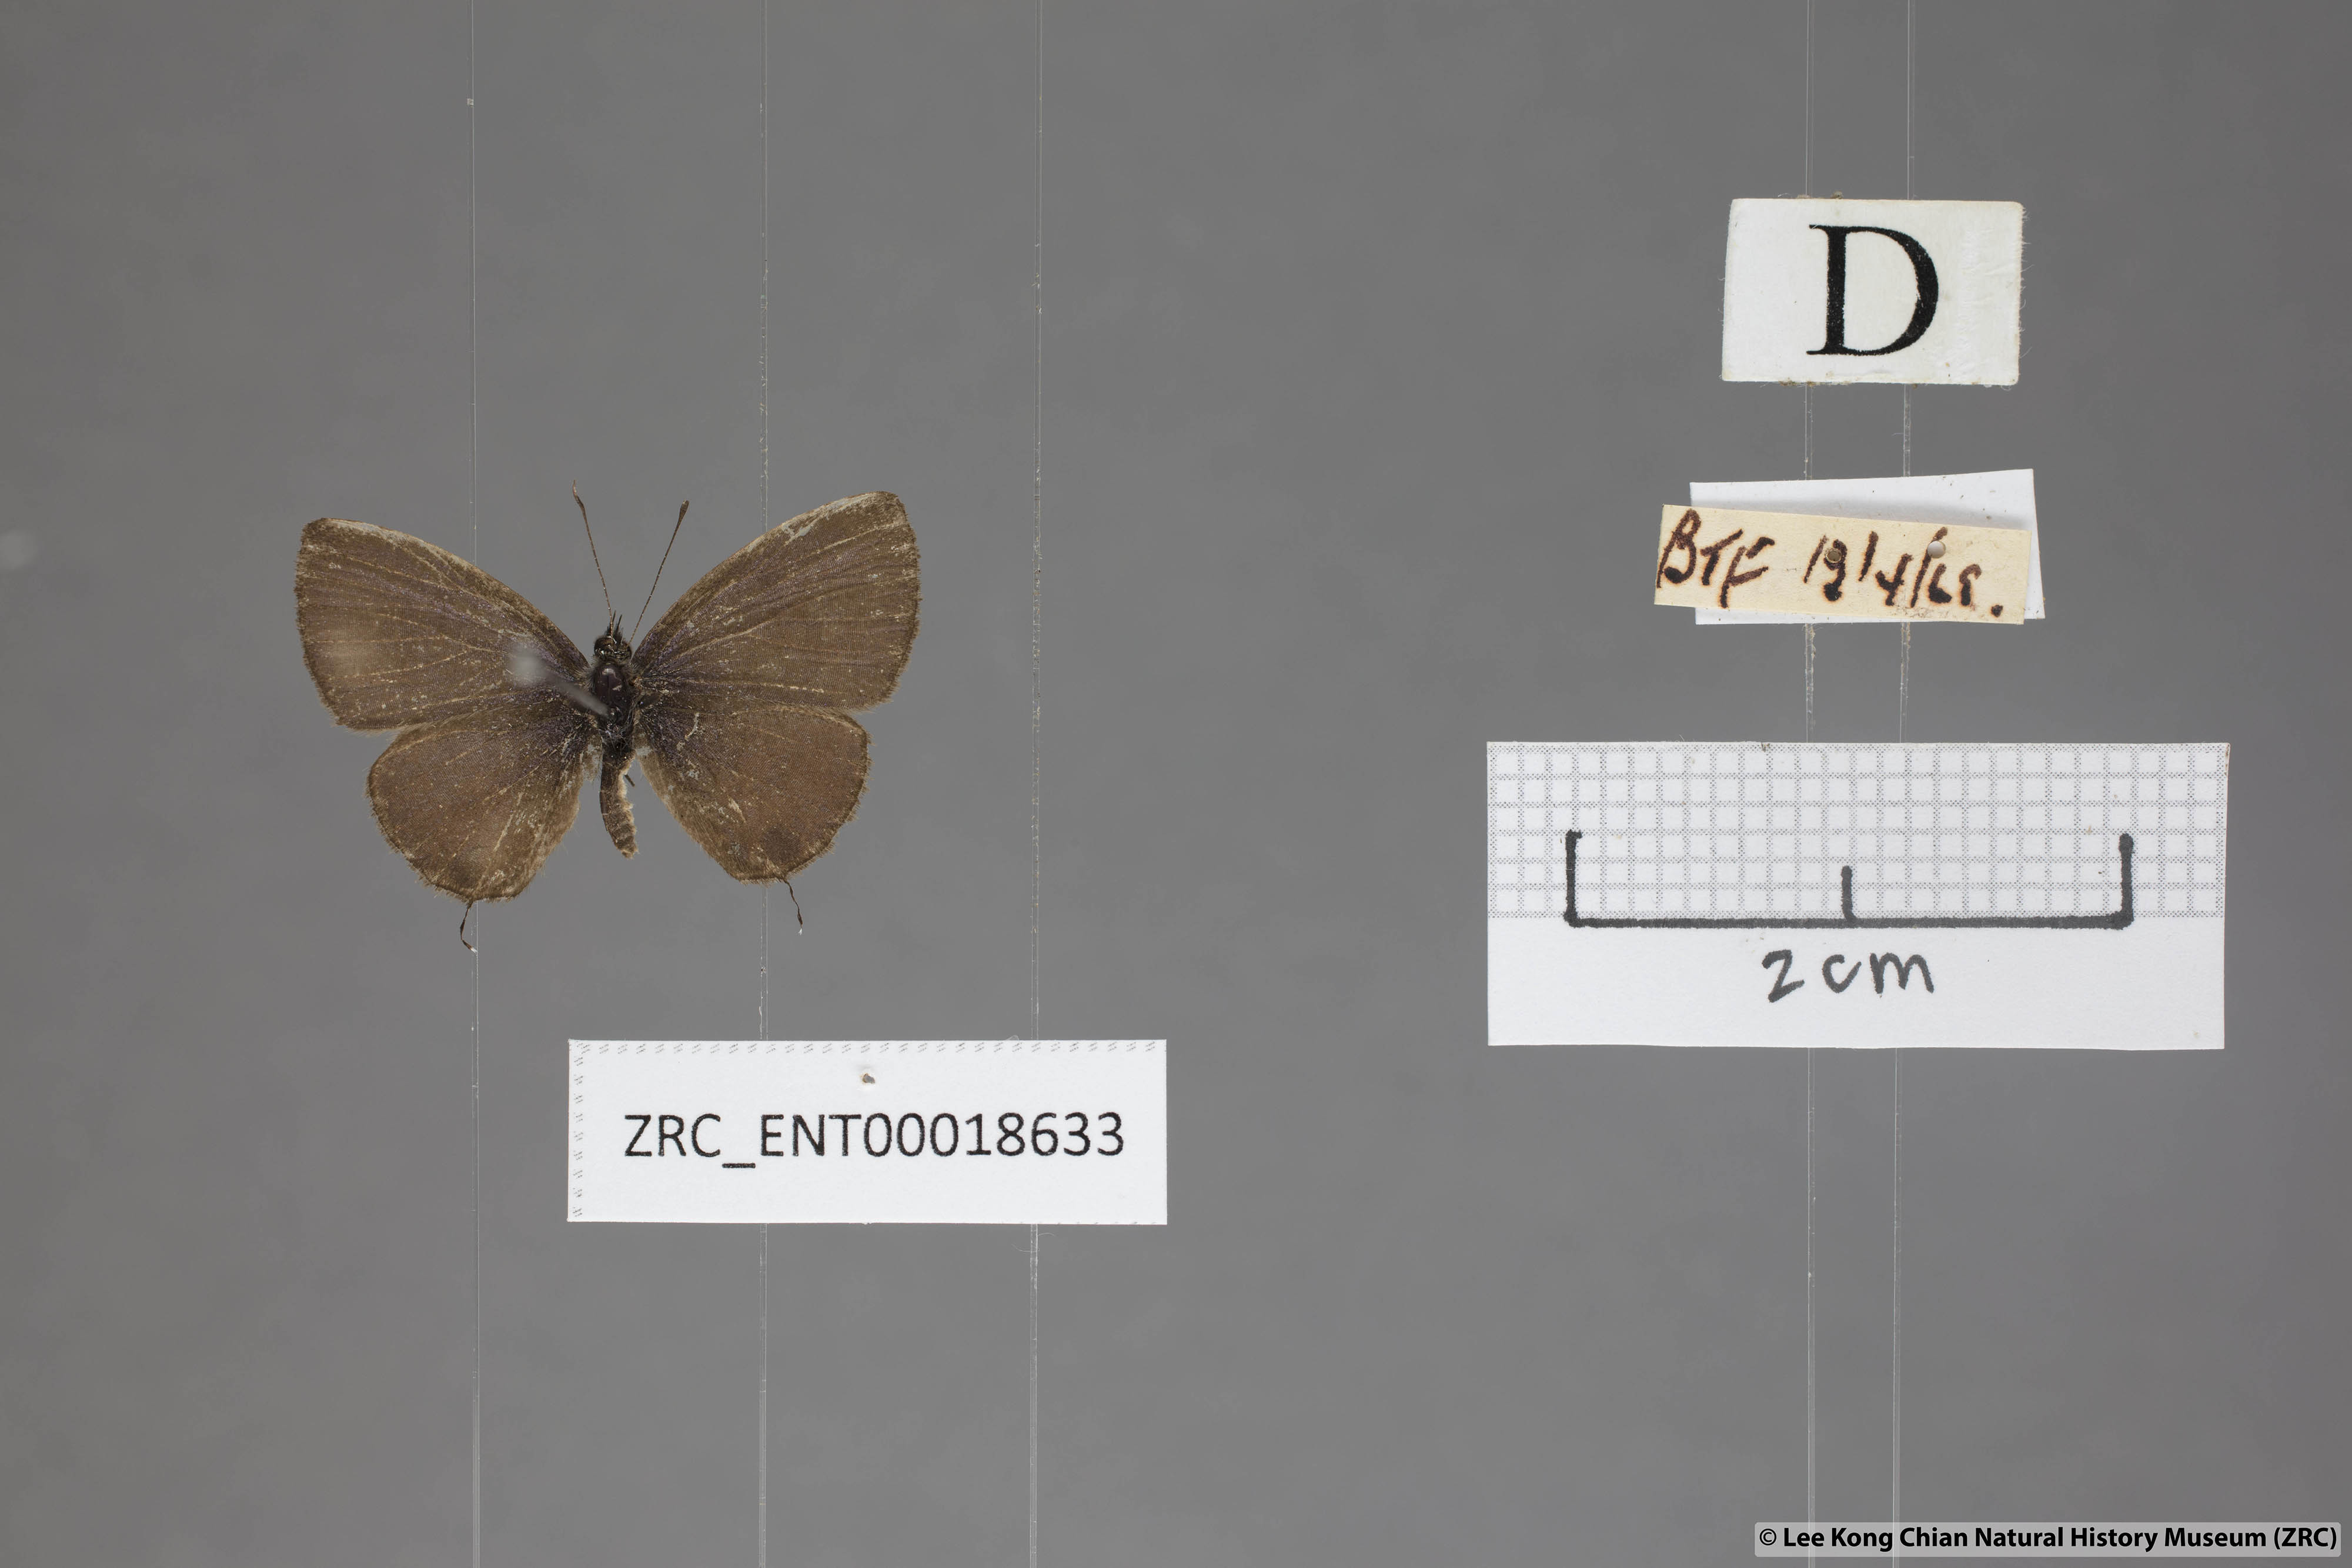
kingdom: Animalia
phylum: Arthropoda
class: Insecta
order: Lepidoptera
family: Lycaenidae
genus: Prosotas
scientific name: Prosotas nora
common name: Common line blue
